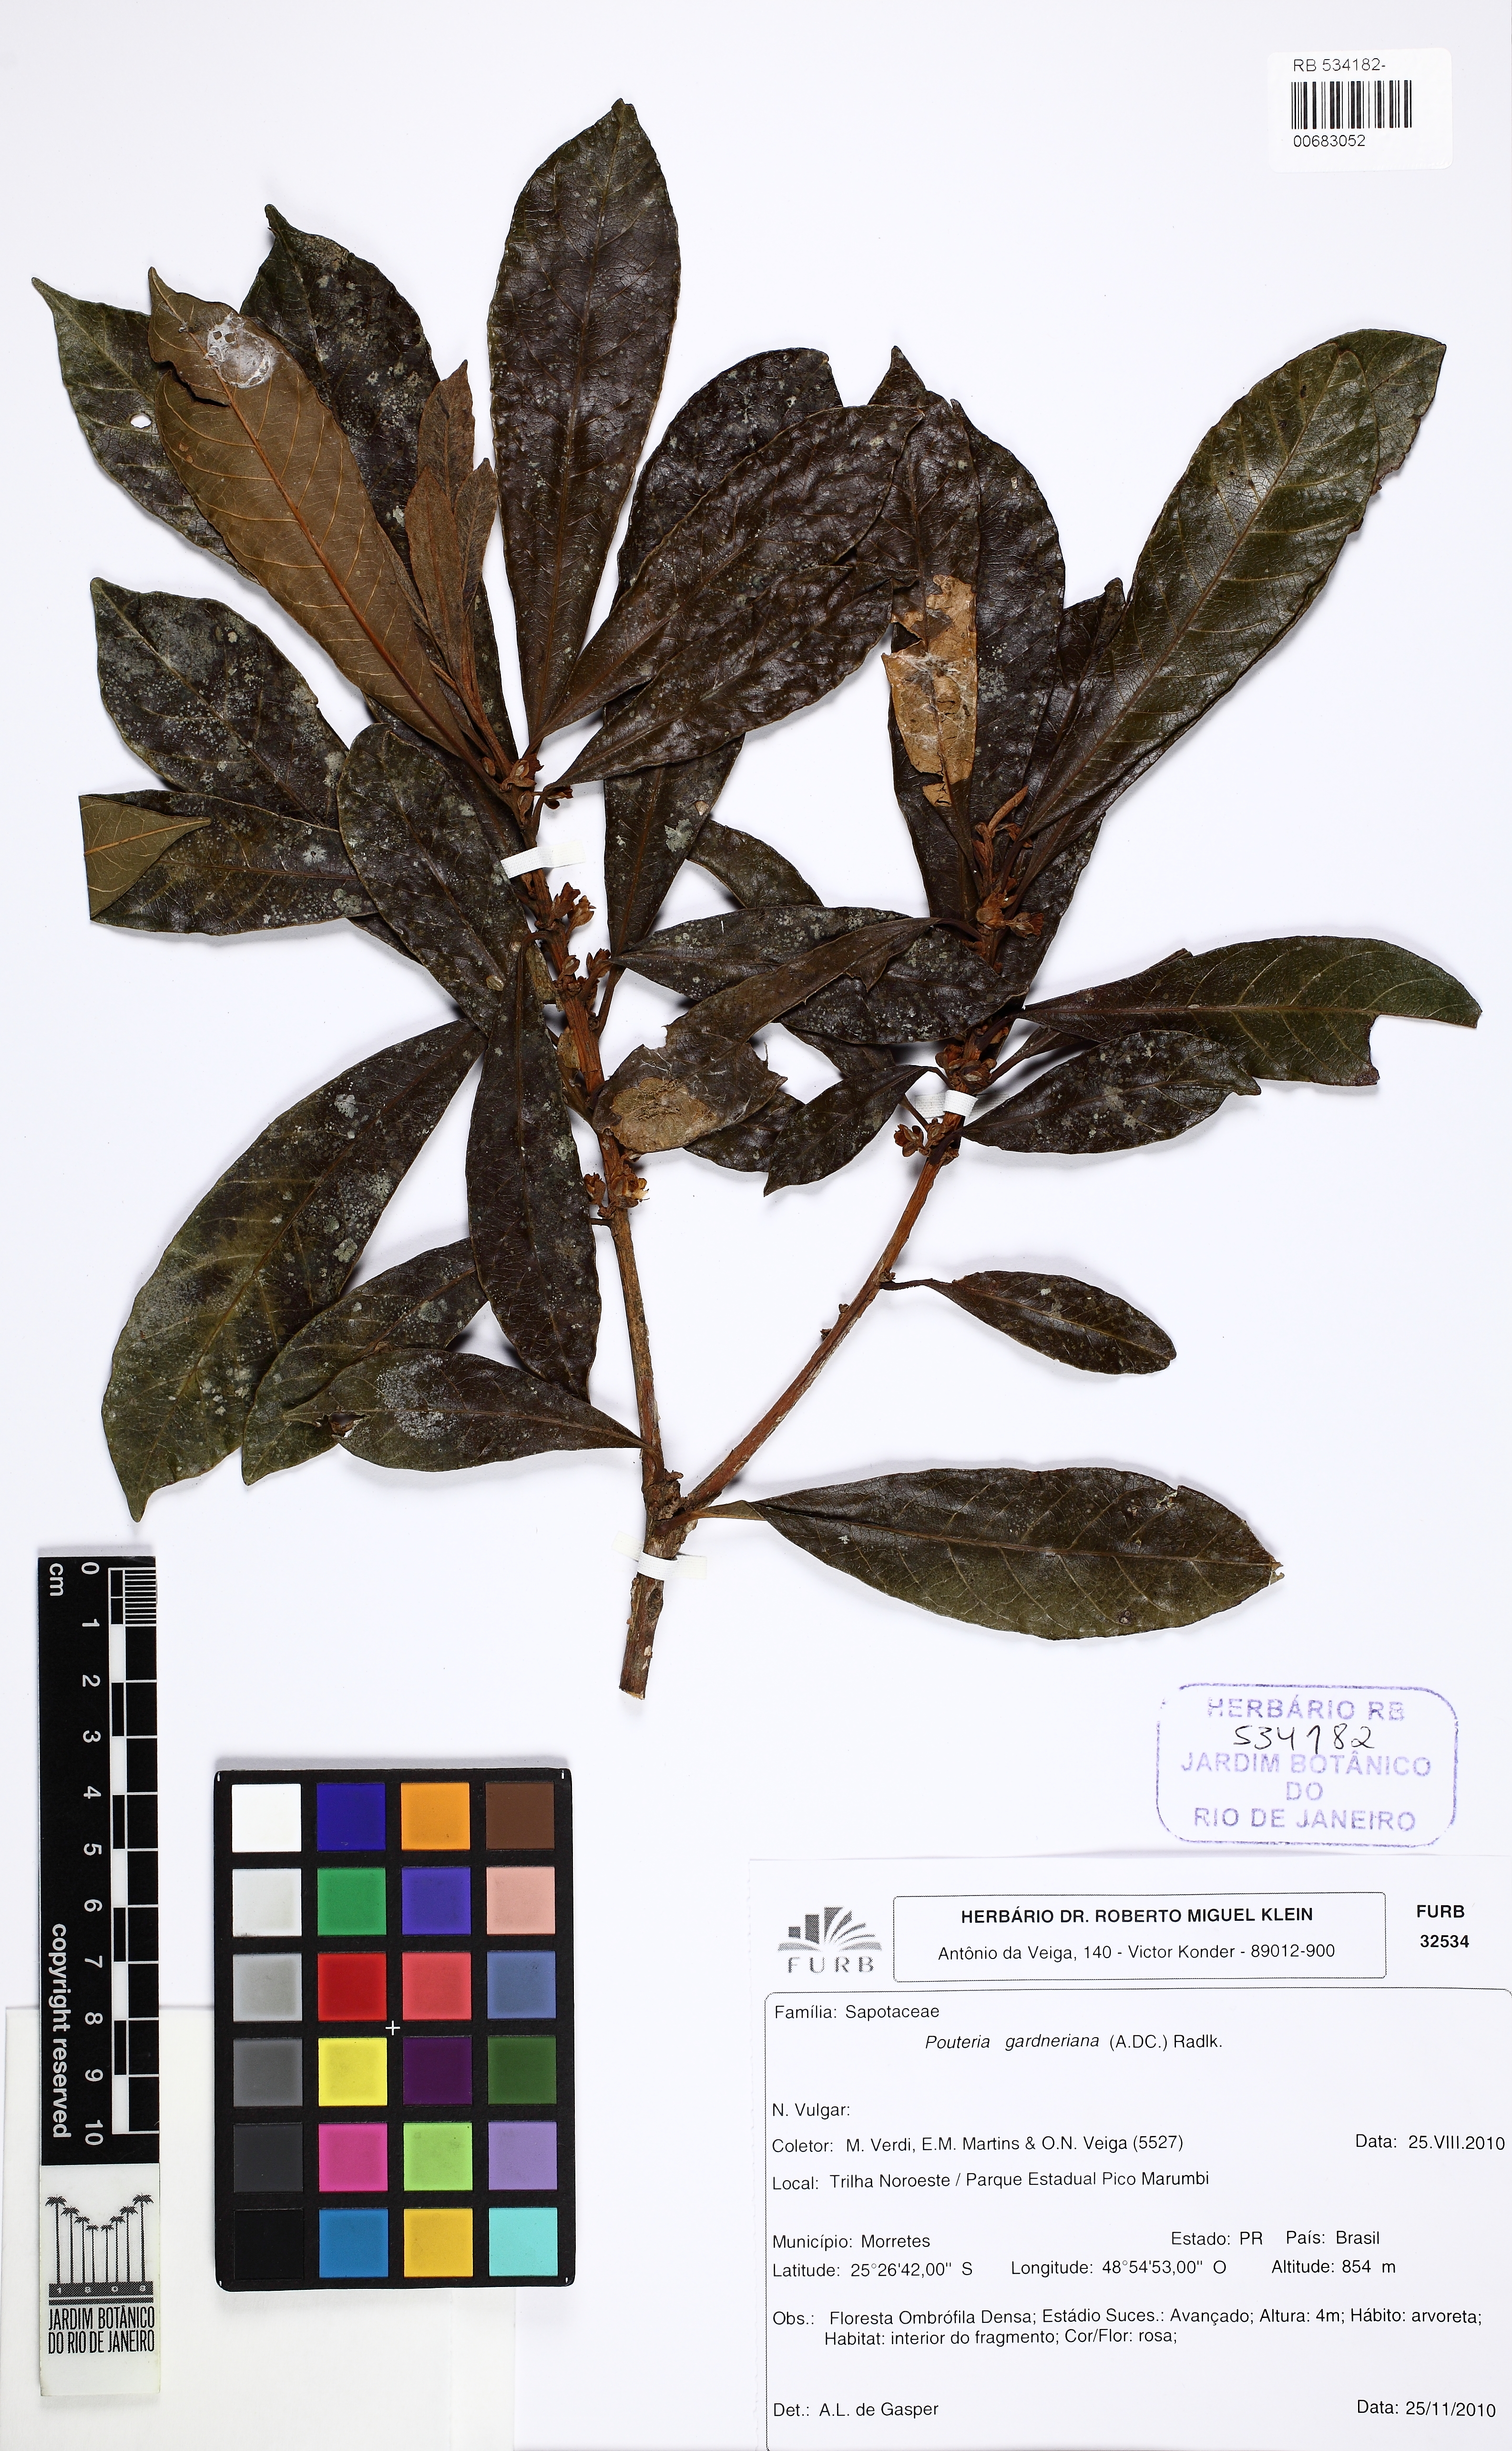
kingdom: Plantae
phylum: Tracheophyta
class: Magnoliopsida
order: Ericales
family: Sapotaceae
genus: Pouteria
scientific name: Pouteria gardneriana
